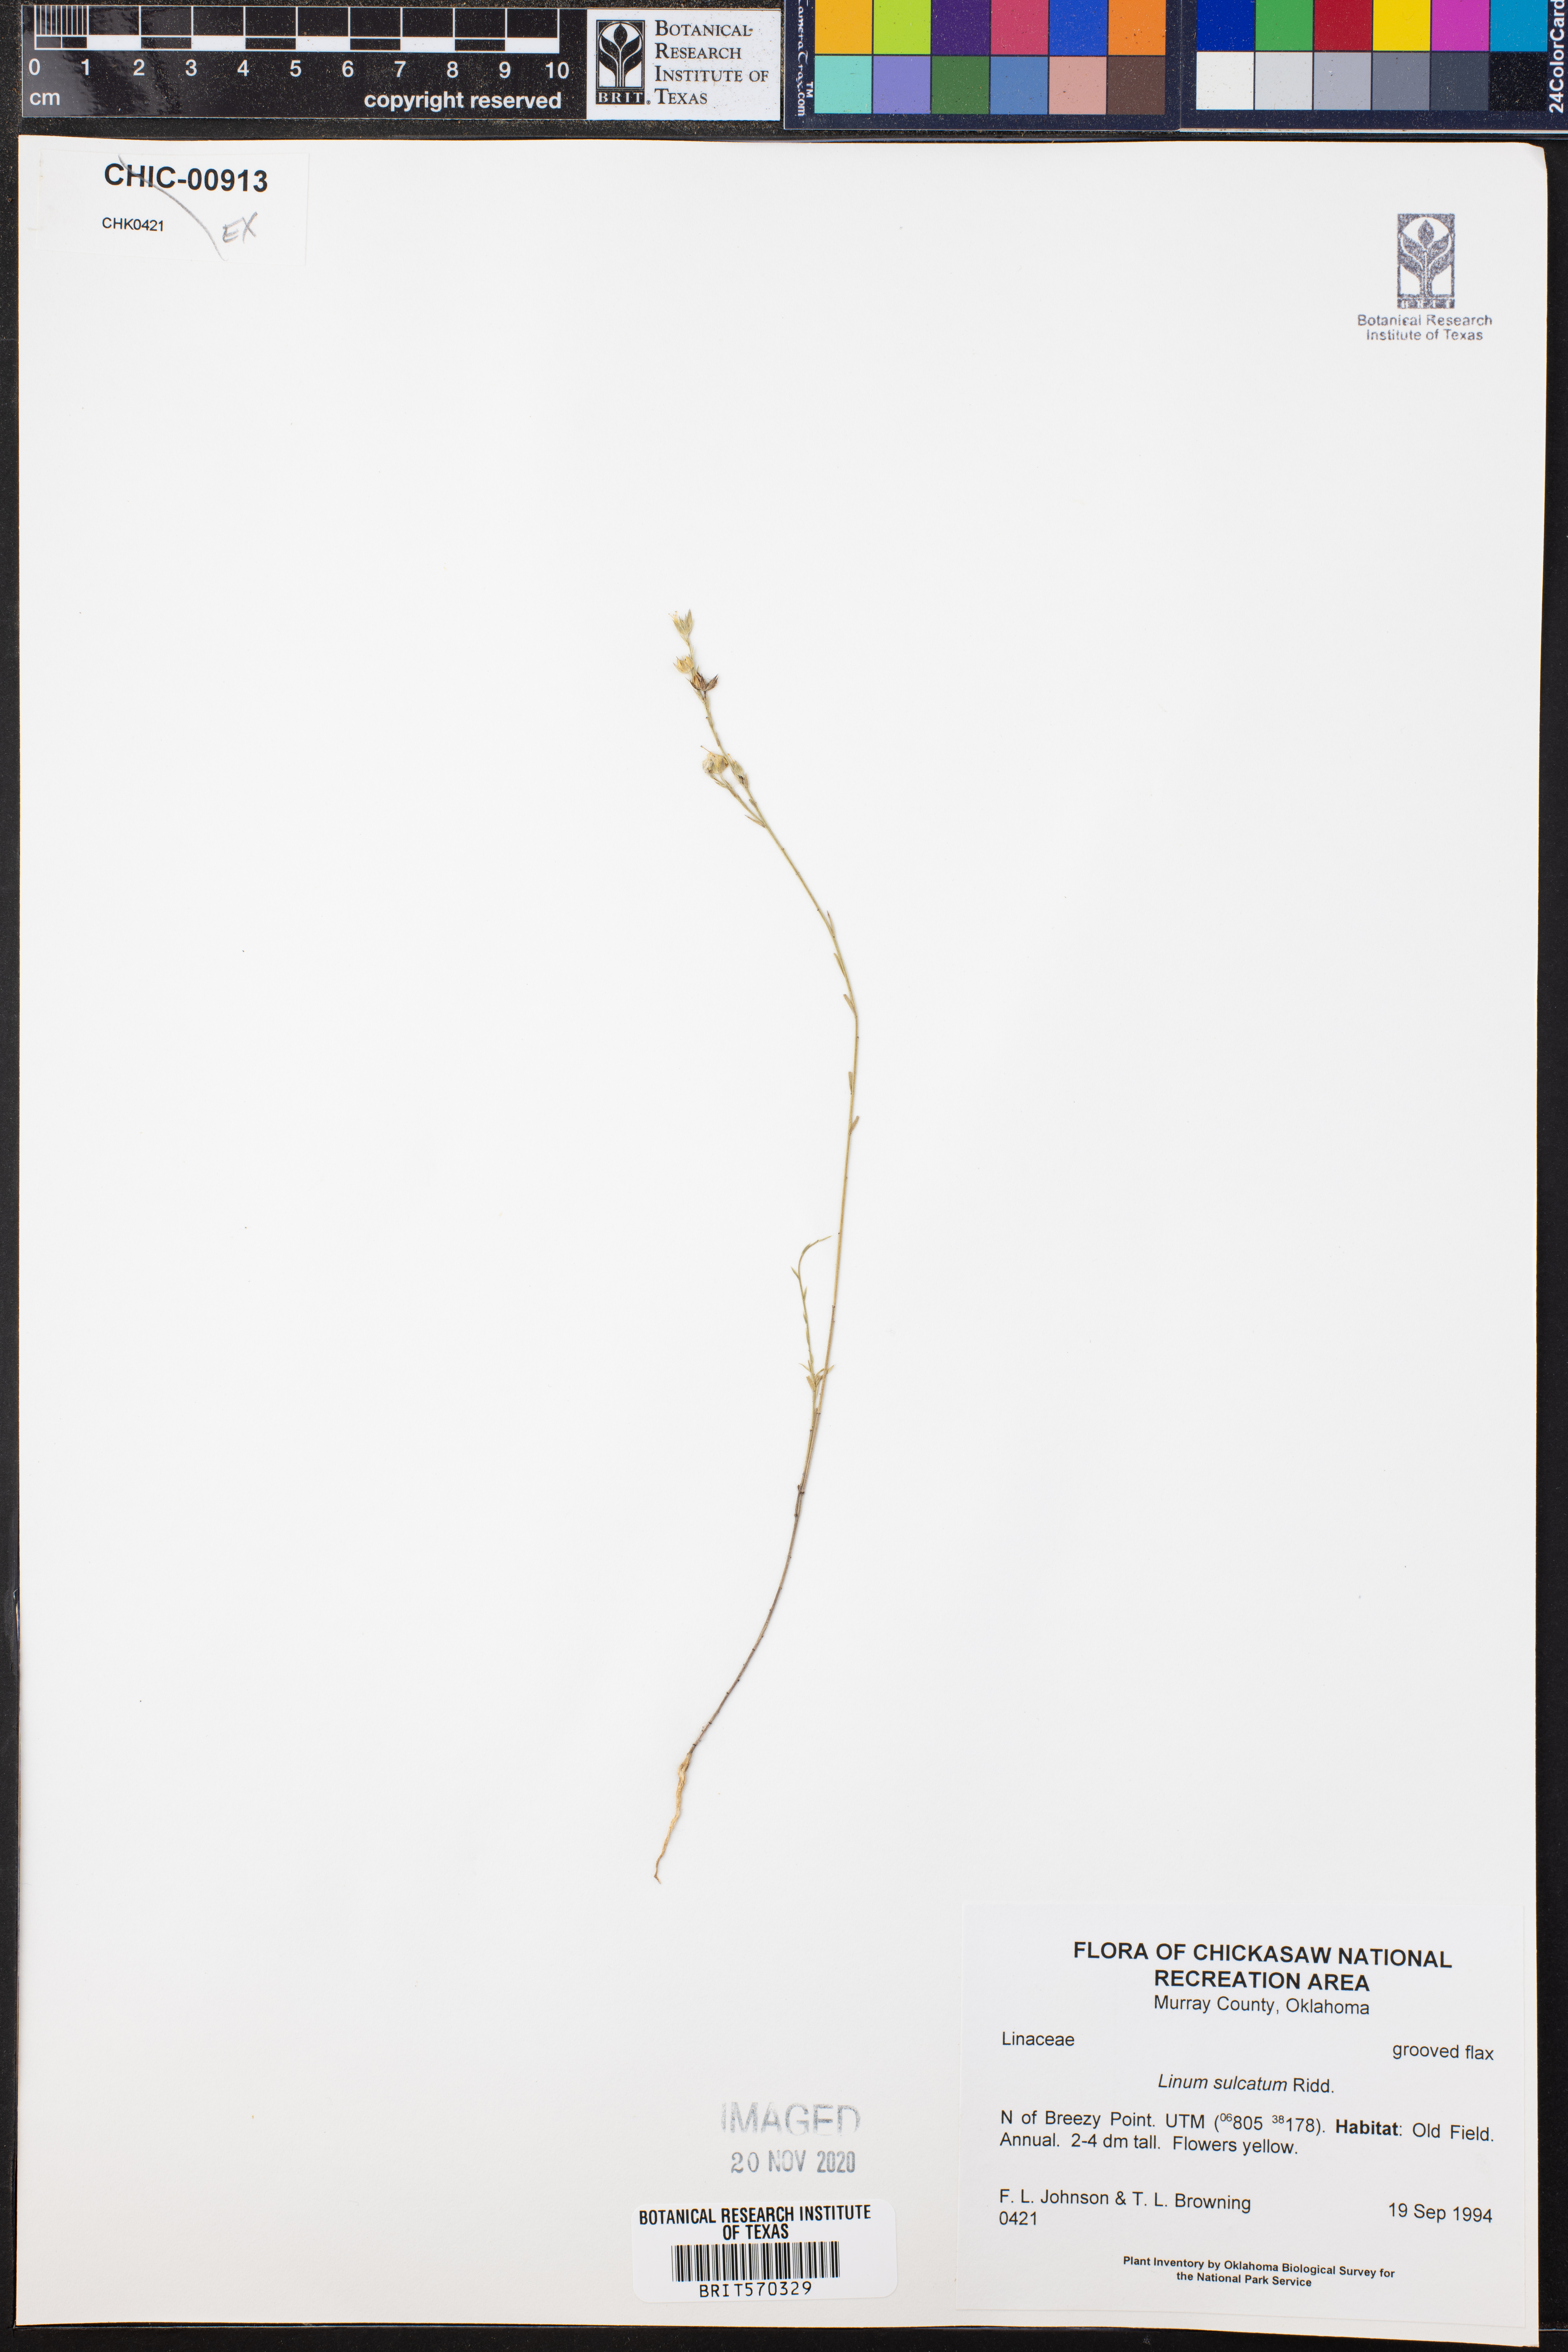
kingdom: Plantae
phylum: Tracheophyta
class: Magnoliopsida
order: Malpighiales
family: Linaceae
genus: Linum
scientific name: Linum sulcatum
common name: Grooved flax
